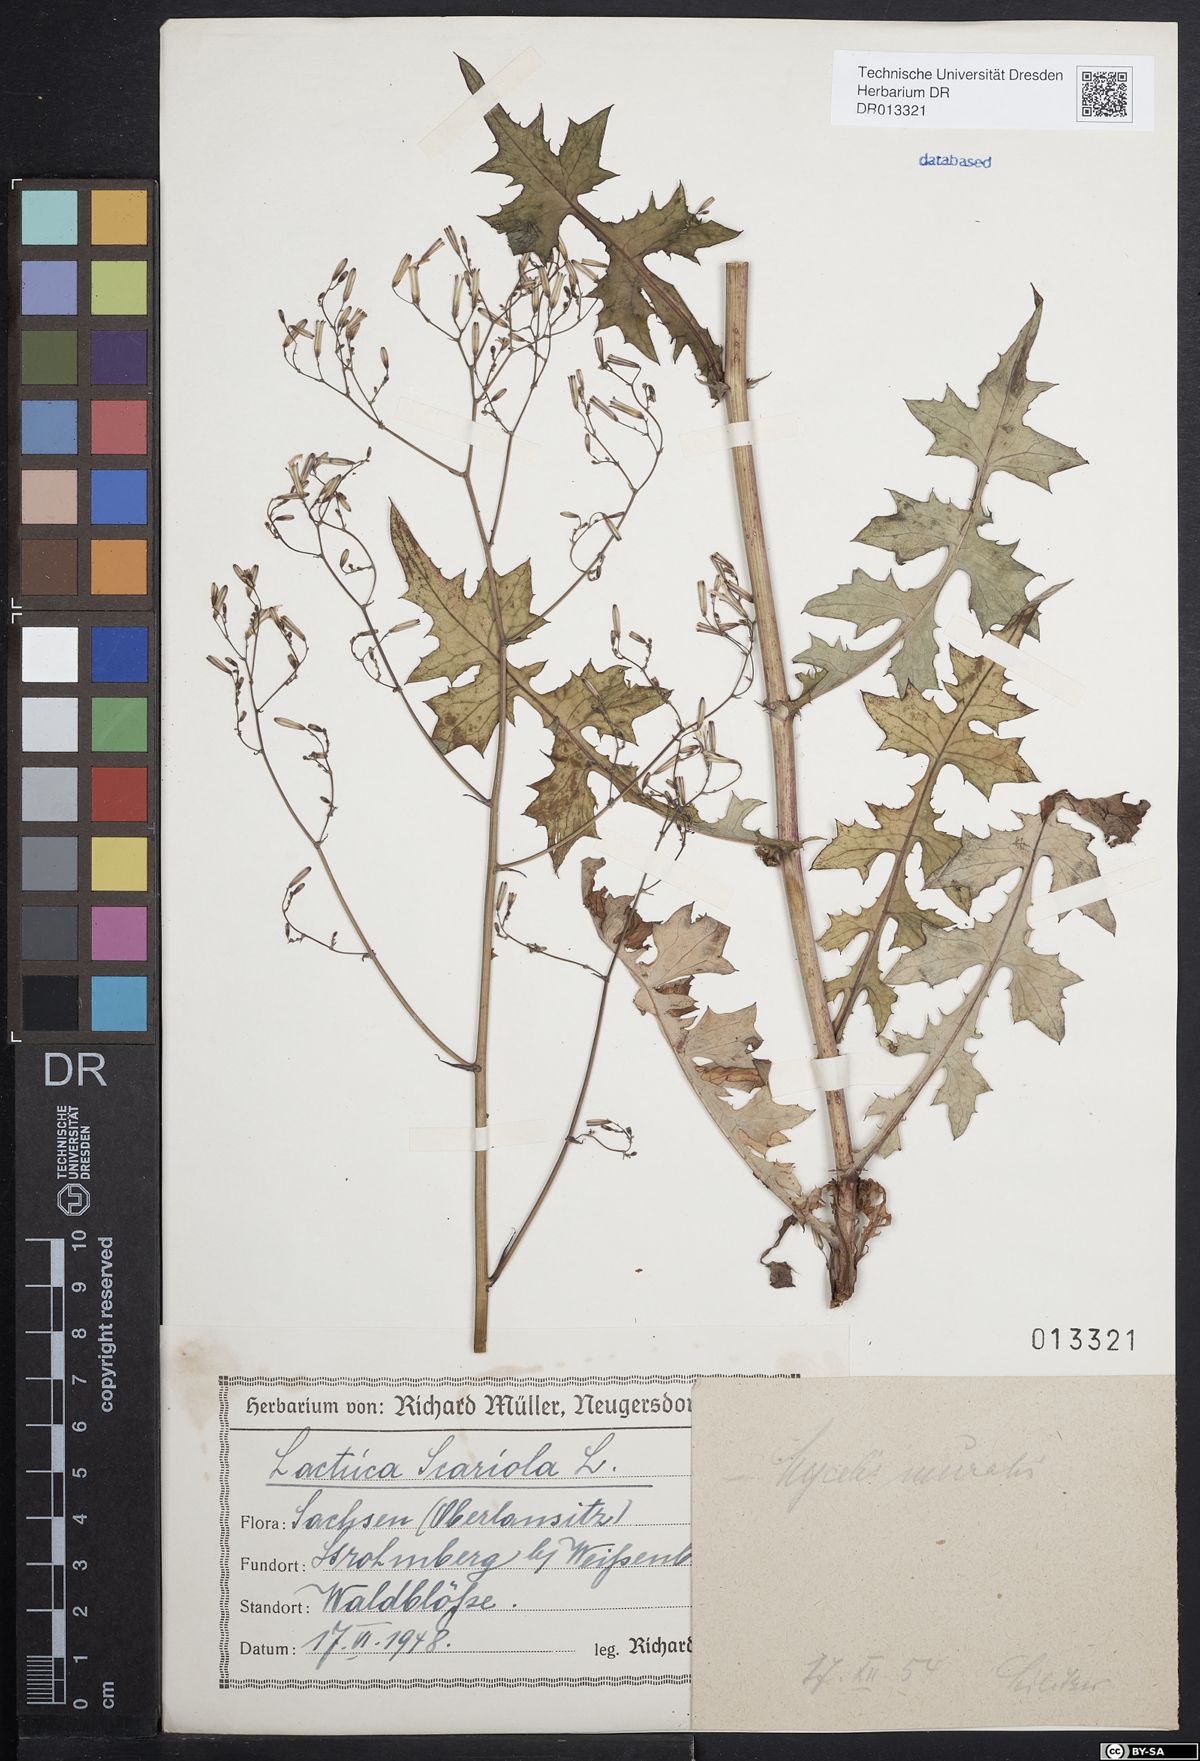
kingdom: Plantae
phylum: Tracheophyta
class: Magnoliopsida
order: Asterales
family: Asteraceae
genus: Mycelis
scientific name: Mycelis muralis
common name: Wall lettuce
